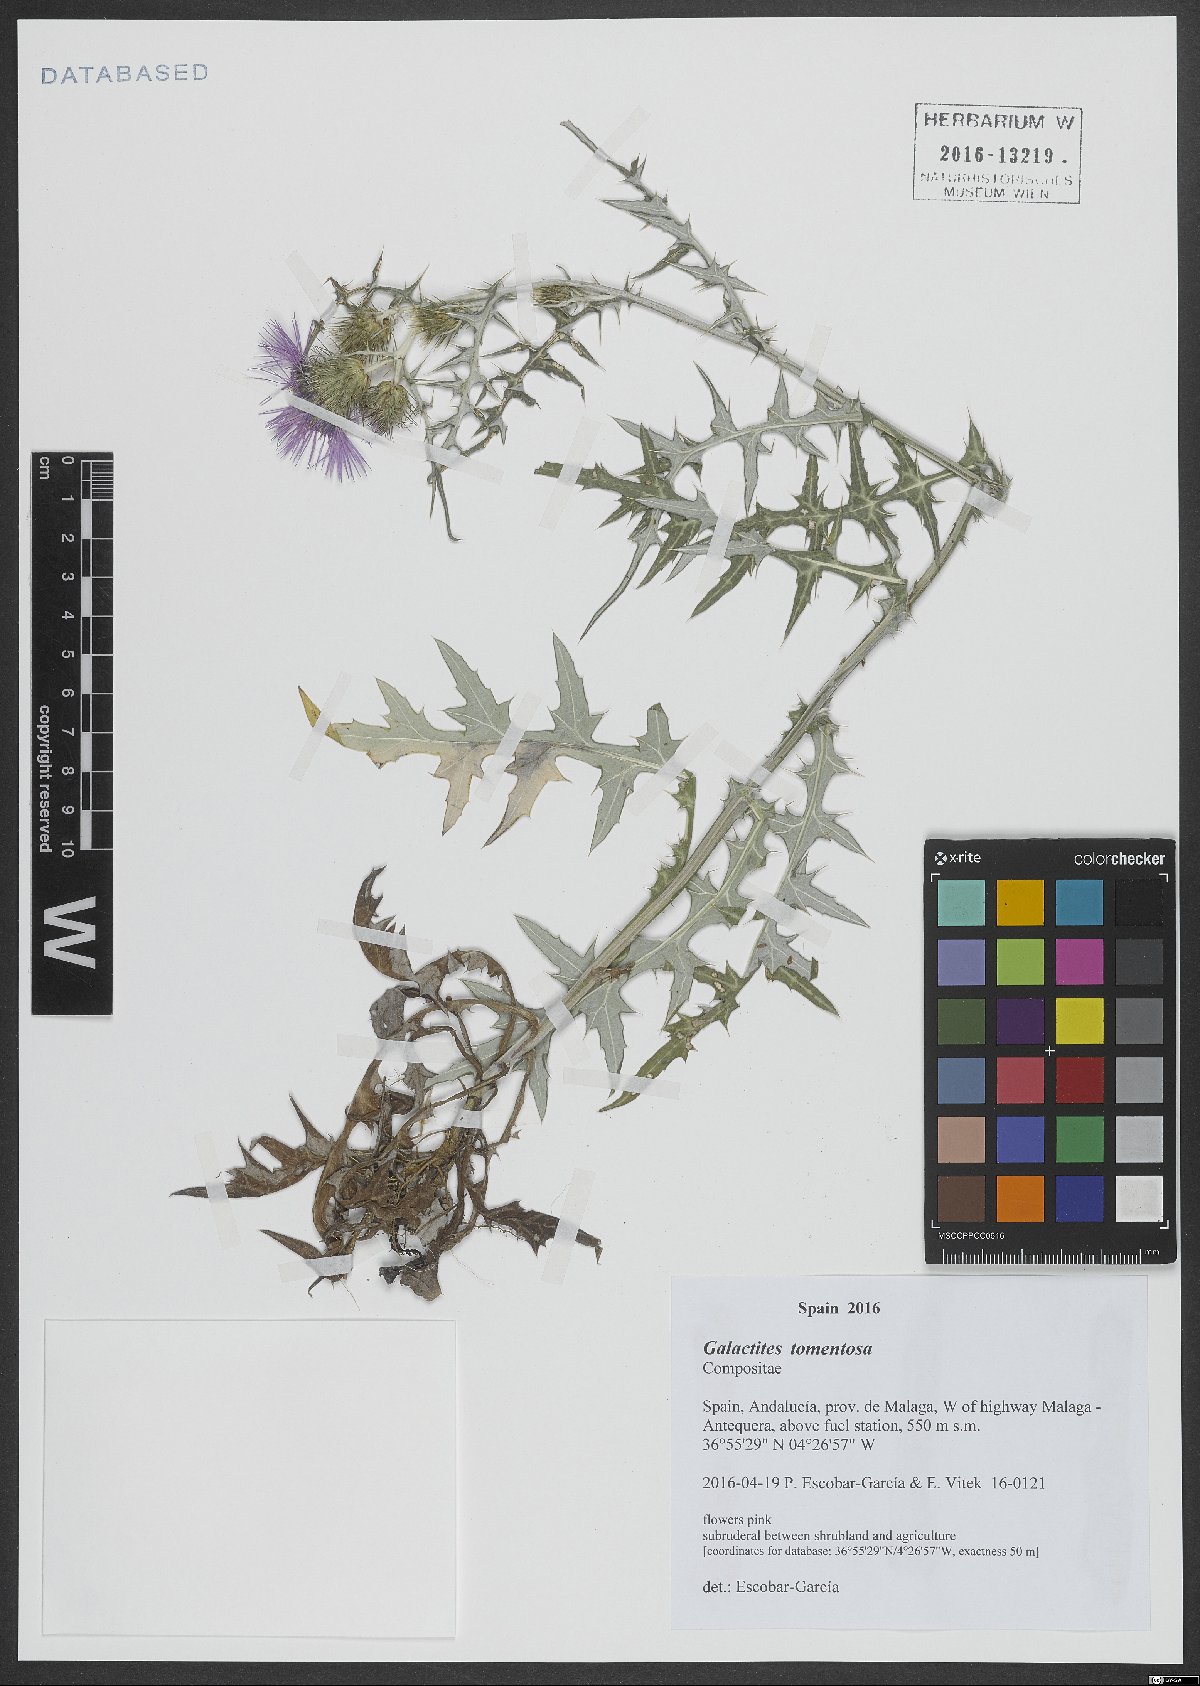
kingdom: Plantae
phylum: Tracheophyta
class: Magnoliopsida
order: Asterales
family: Asteraceae
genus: Galactites
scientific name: Galactites tomentosa
